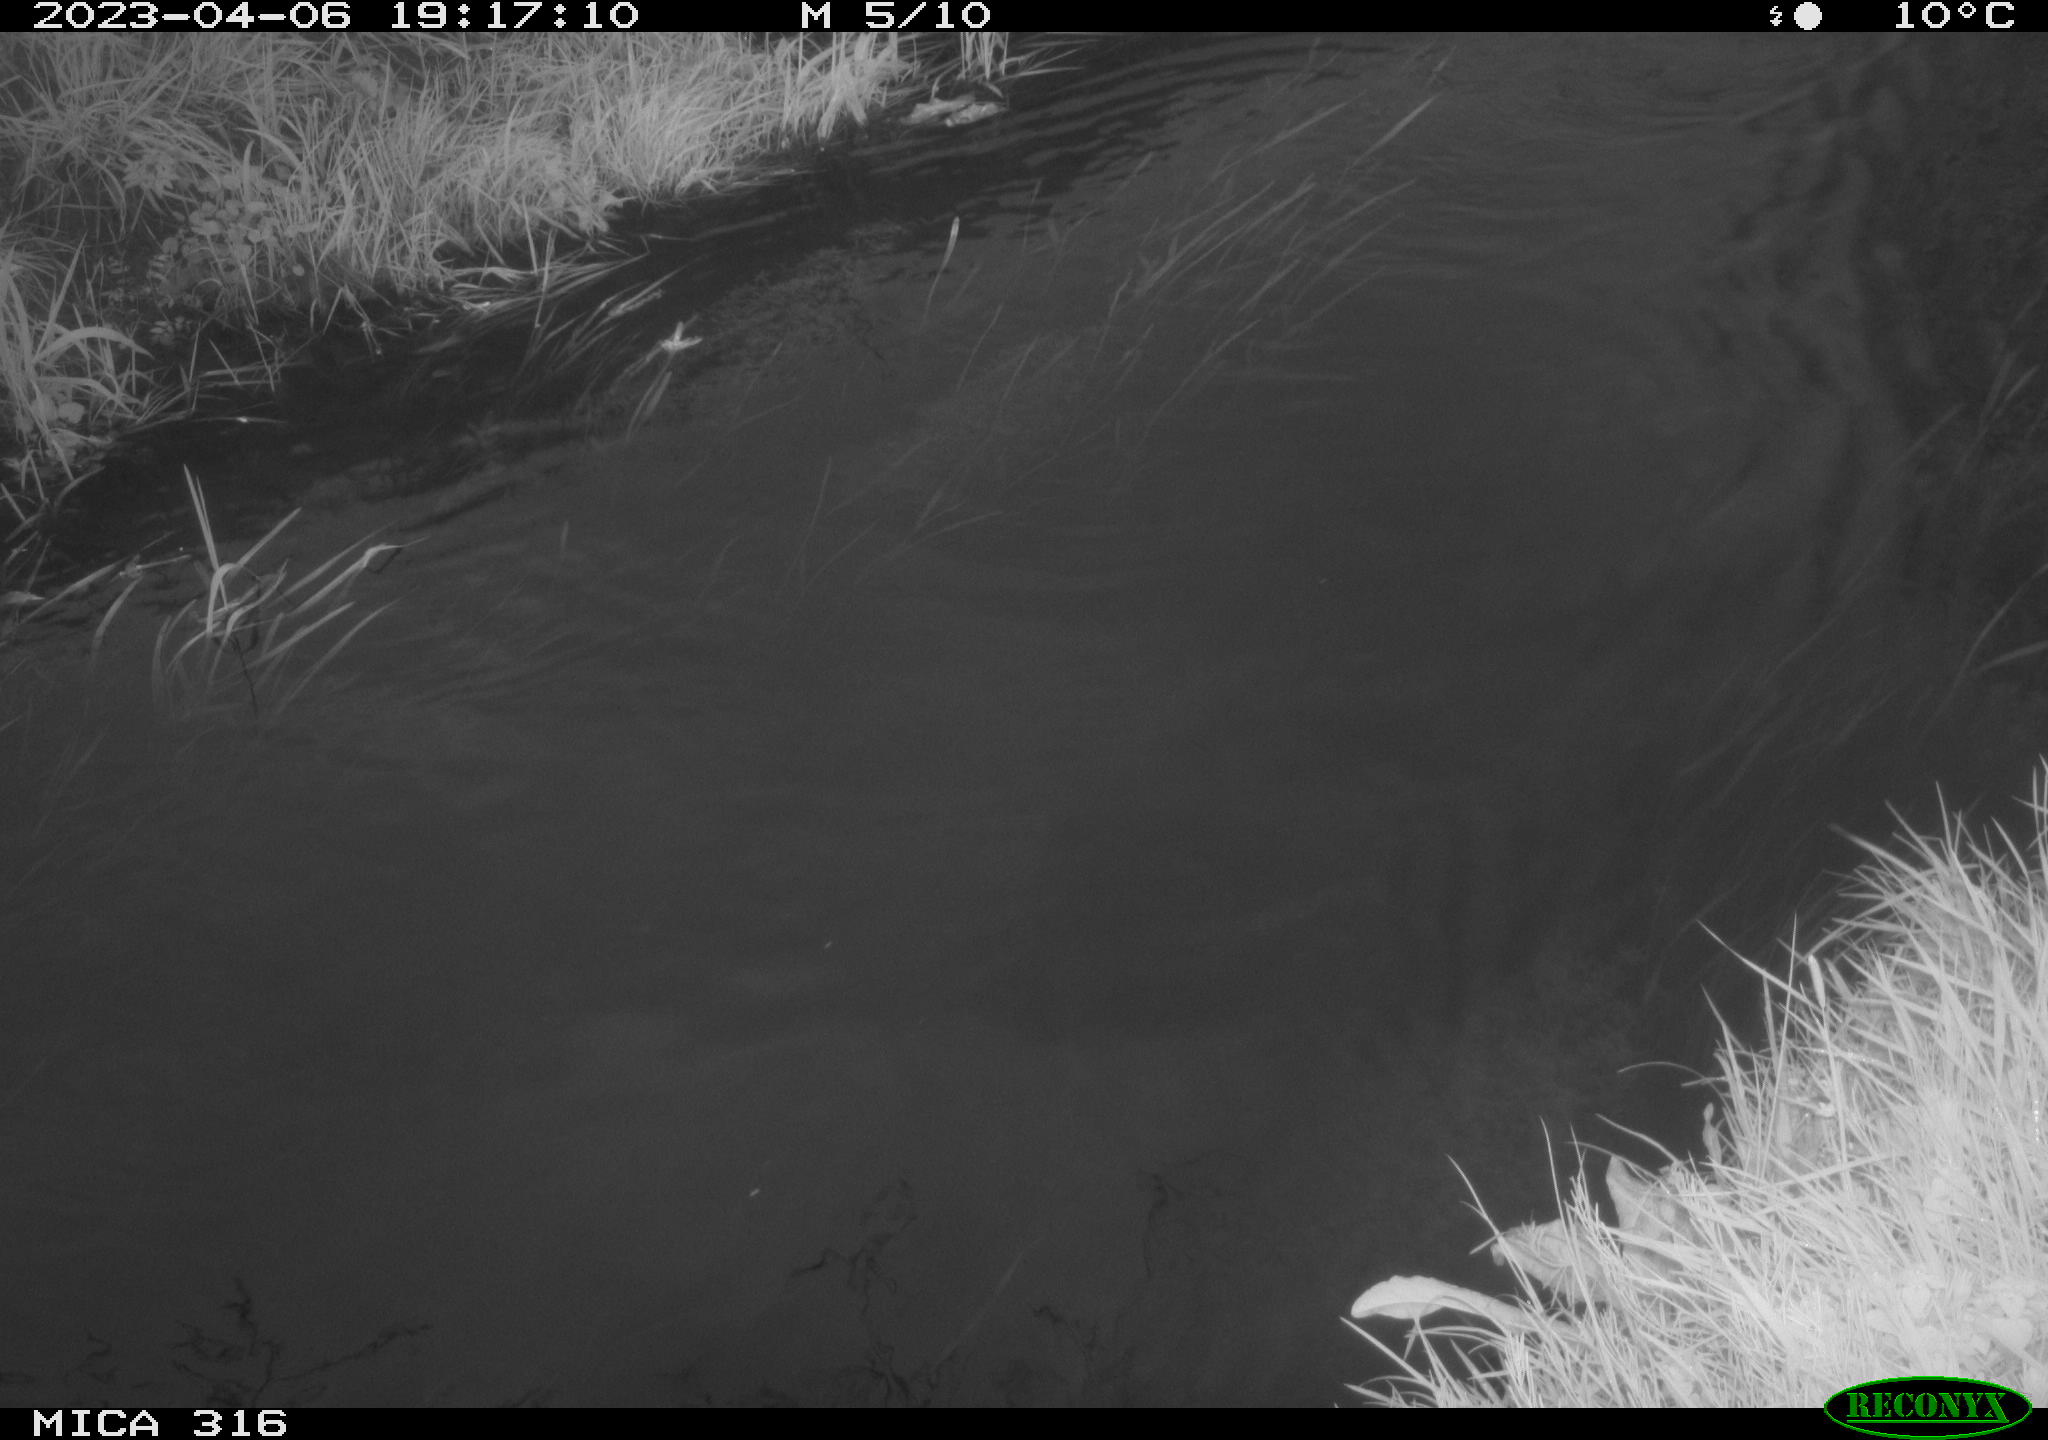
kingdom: Animalia
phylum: Chordata
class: Aves
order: Anseriformes
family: Anatidae
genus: Anas
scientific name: Anas
